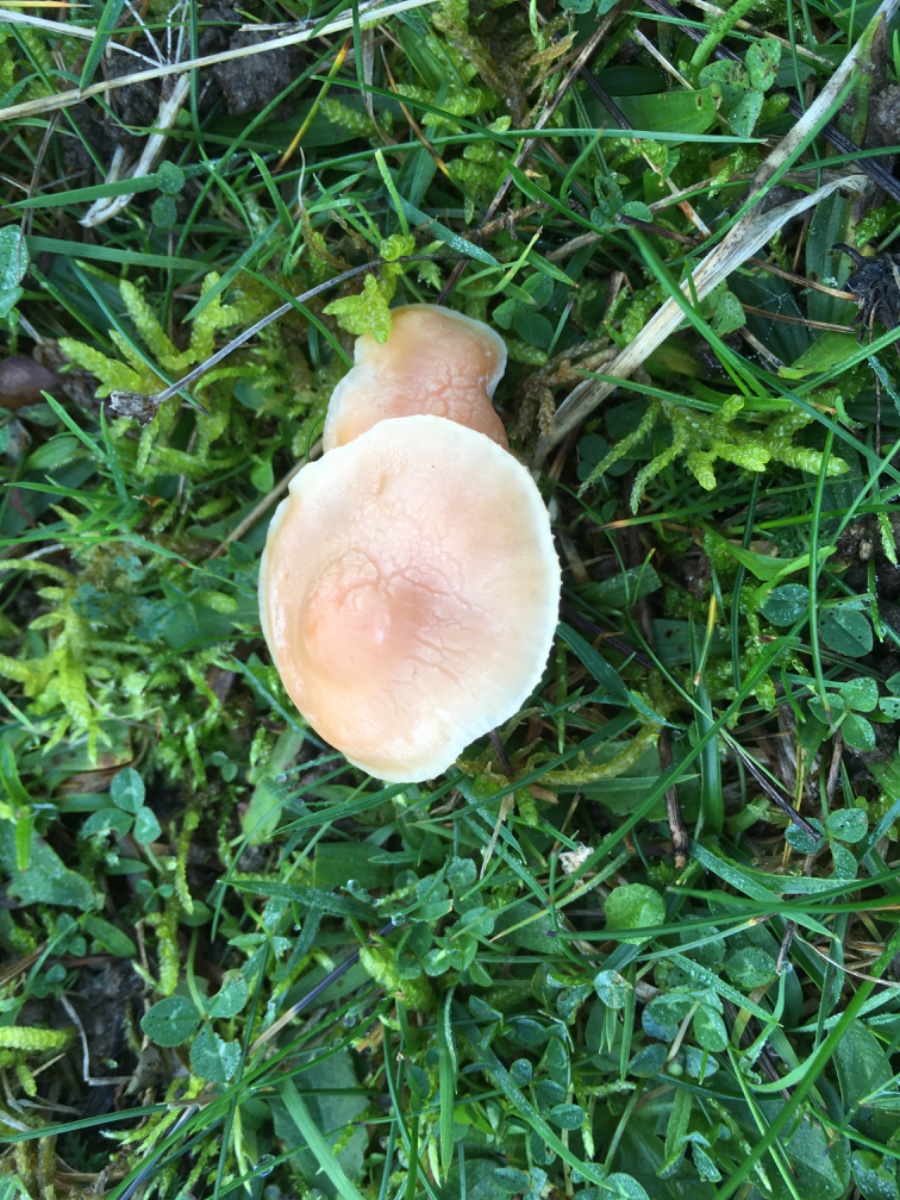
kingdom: Fungi
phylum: Basidiomycota
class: Agaricomycetes
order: Agaricales
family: Hygrophoraceae
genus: Cuphophyllus
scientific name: Cuphophyllus pratensis
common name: eng-vokshat
